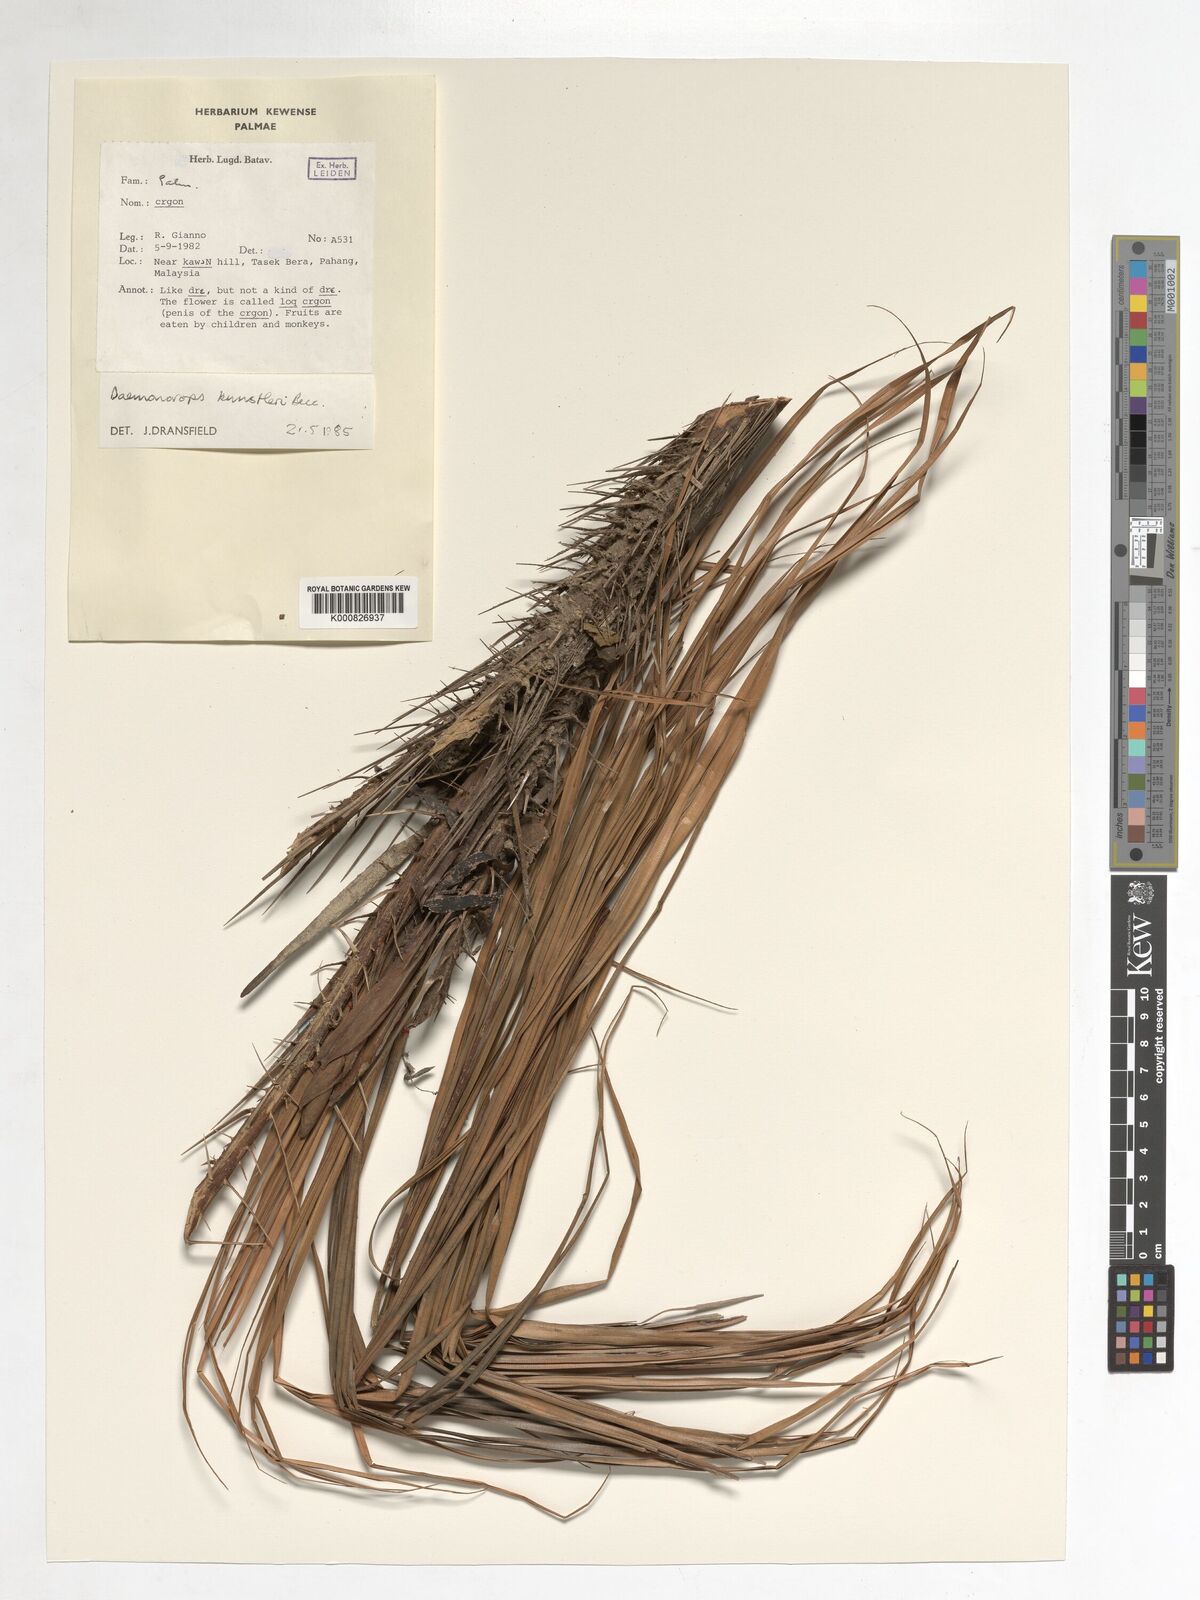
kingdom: Plantae
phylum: Tracheophyta
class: Liliopsida
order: Arecales
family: Arecaceae
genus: Calamus
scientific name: Calamus kunstleri
